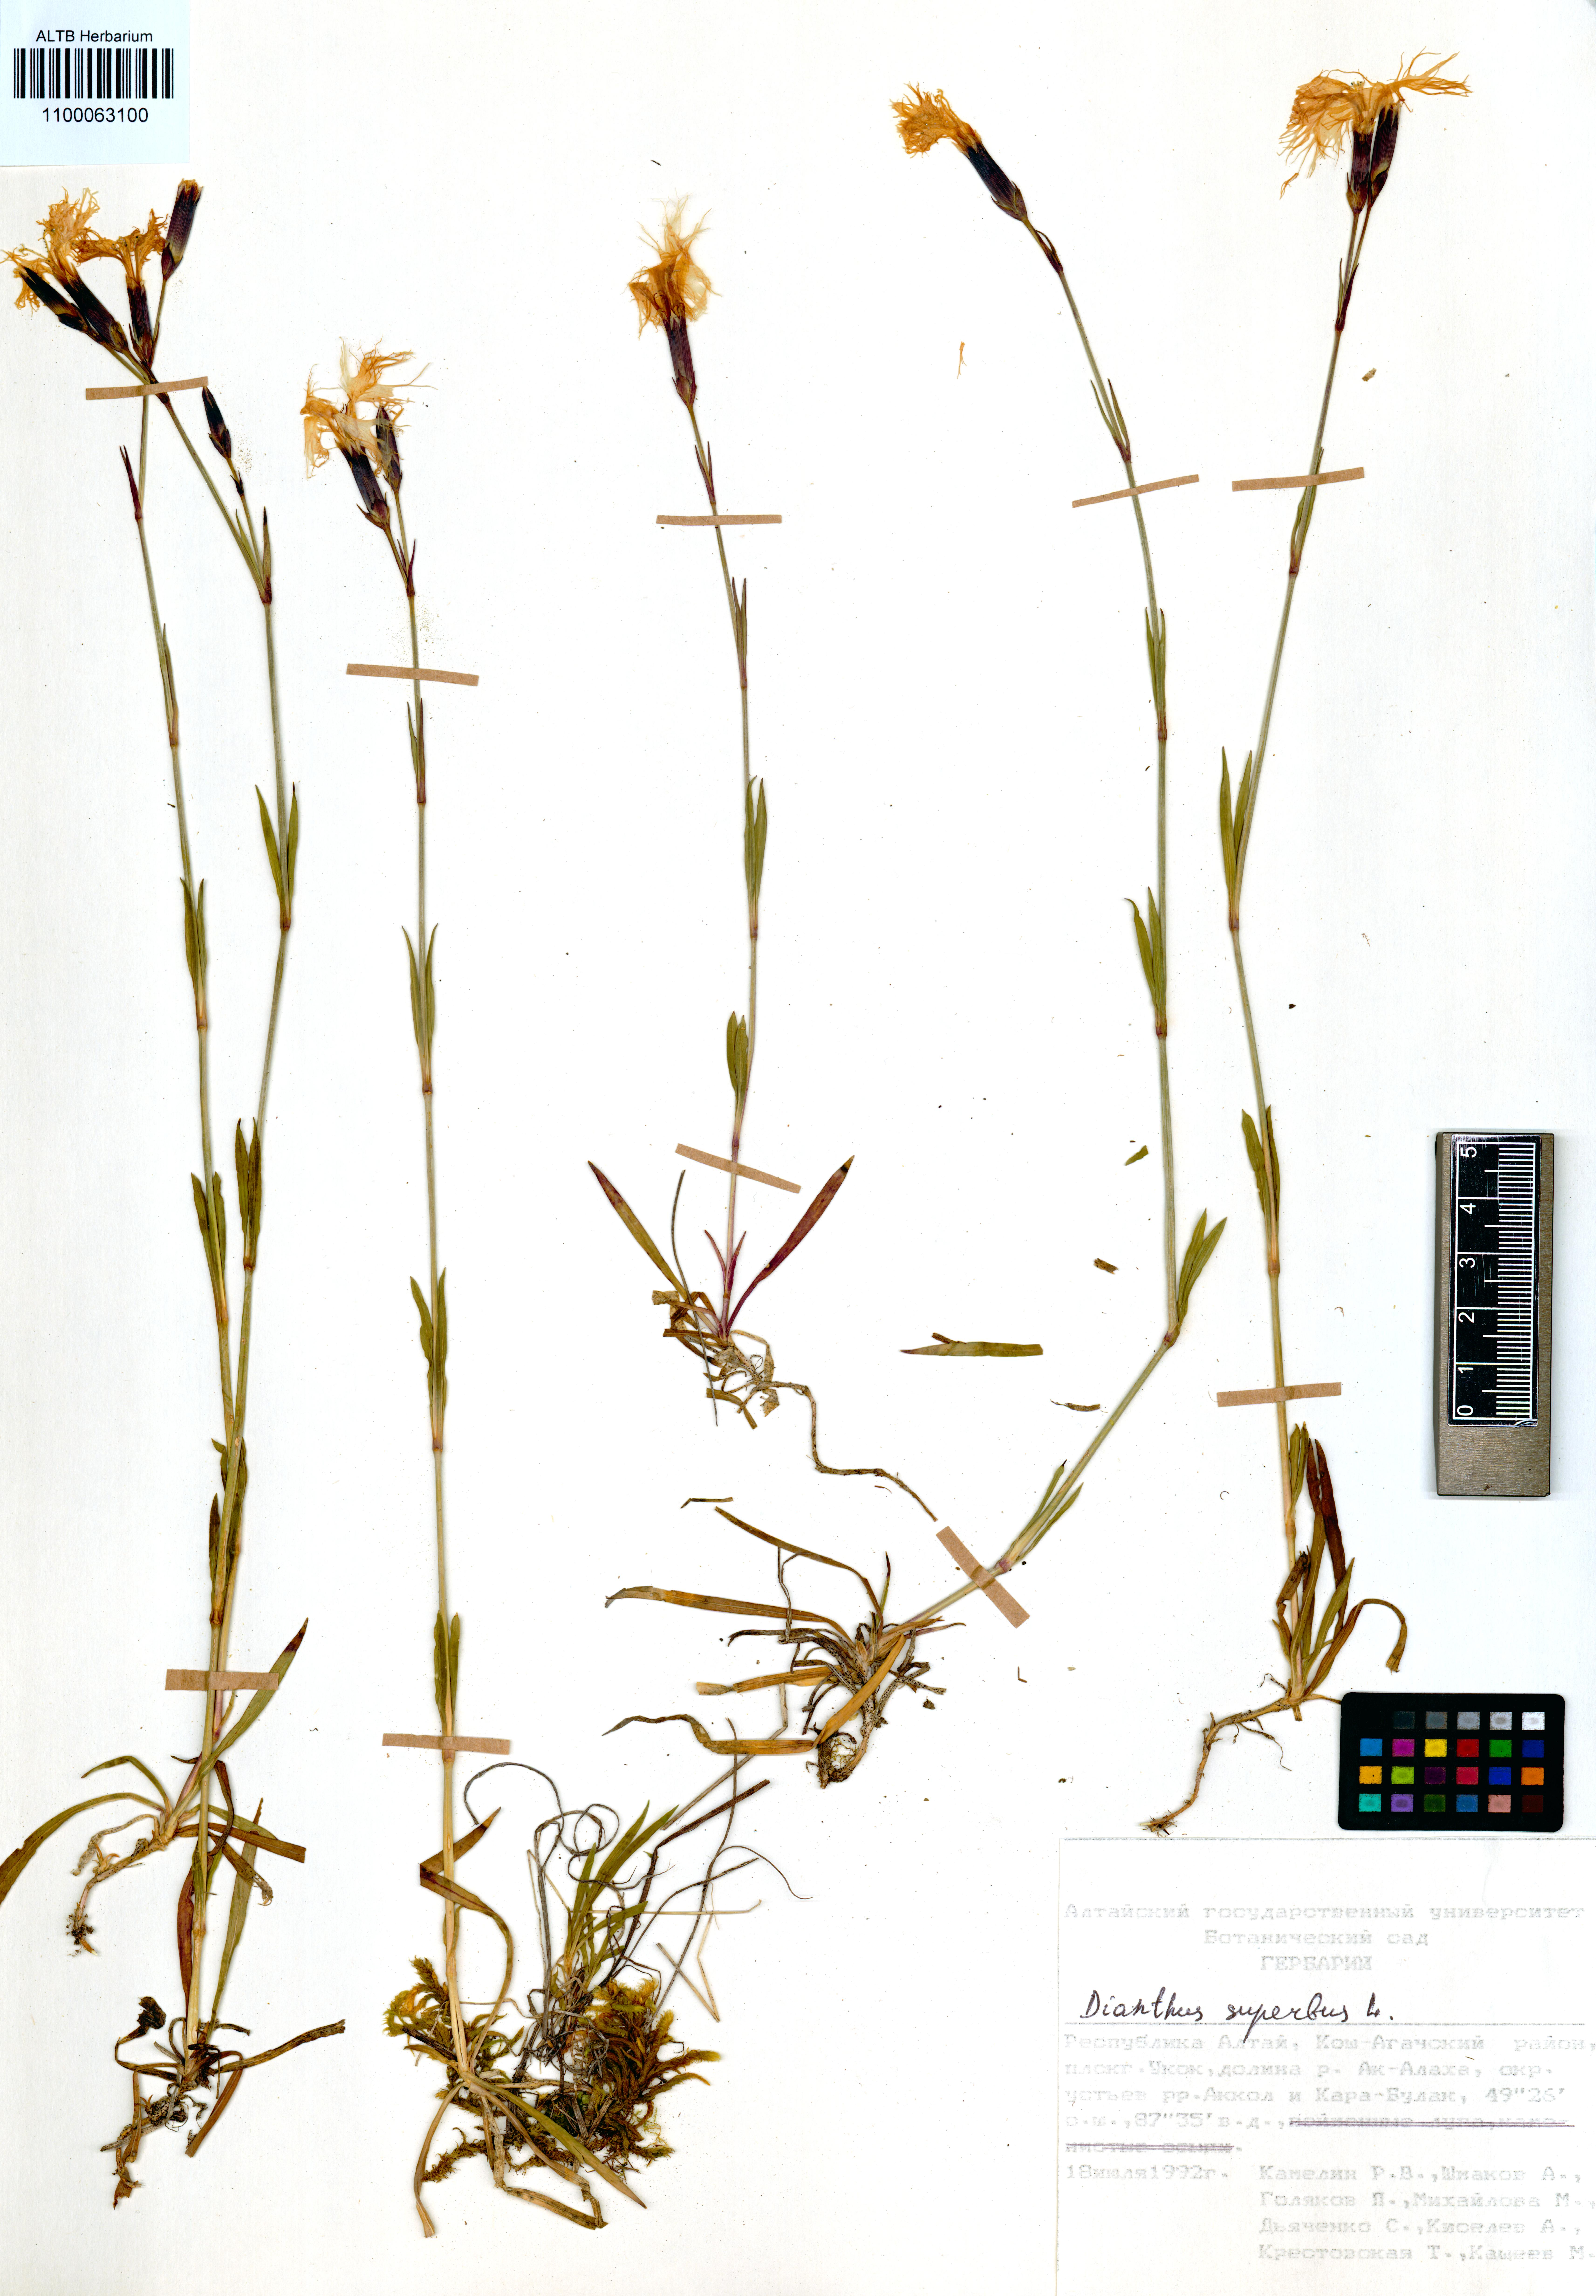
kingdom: Plantae
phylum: Tracheophyta
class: Magnoliopsida
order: Caryophyllales
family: Caryophyllaceae
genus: Dianthus
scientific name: Dianthus superbus
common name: Fringed pink
